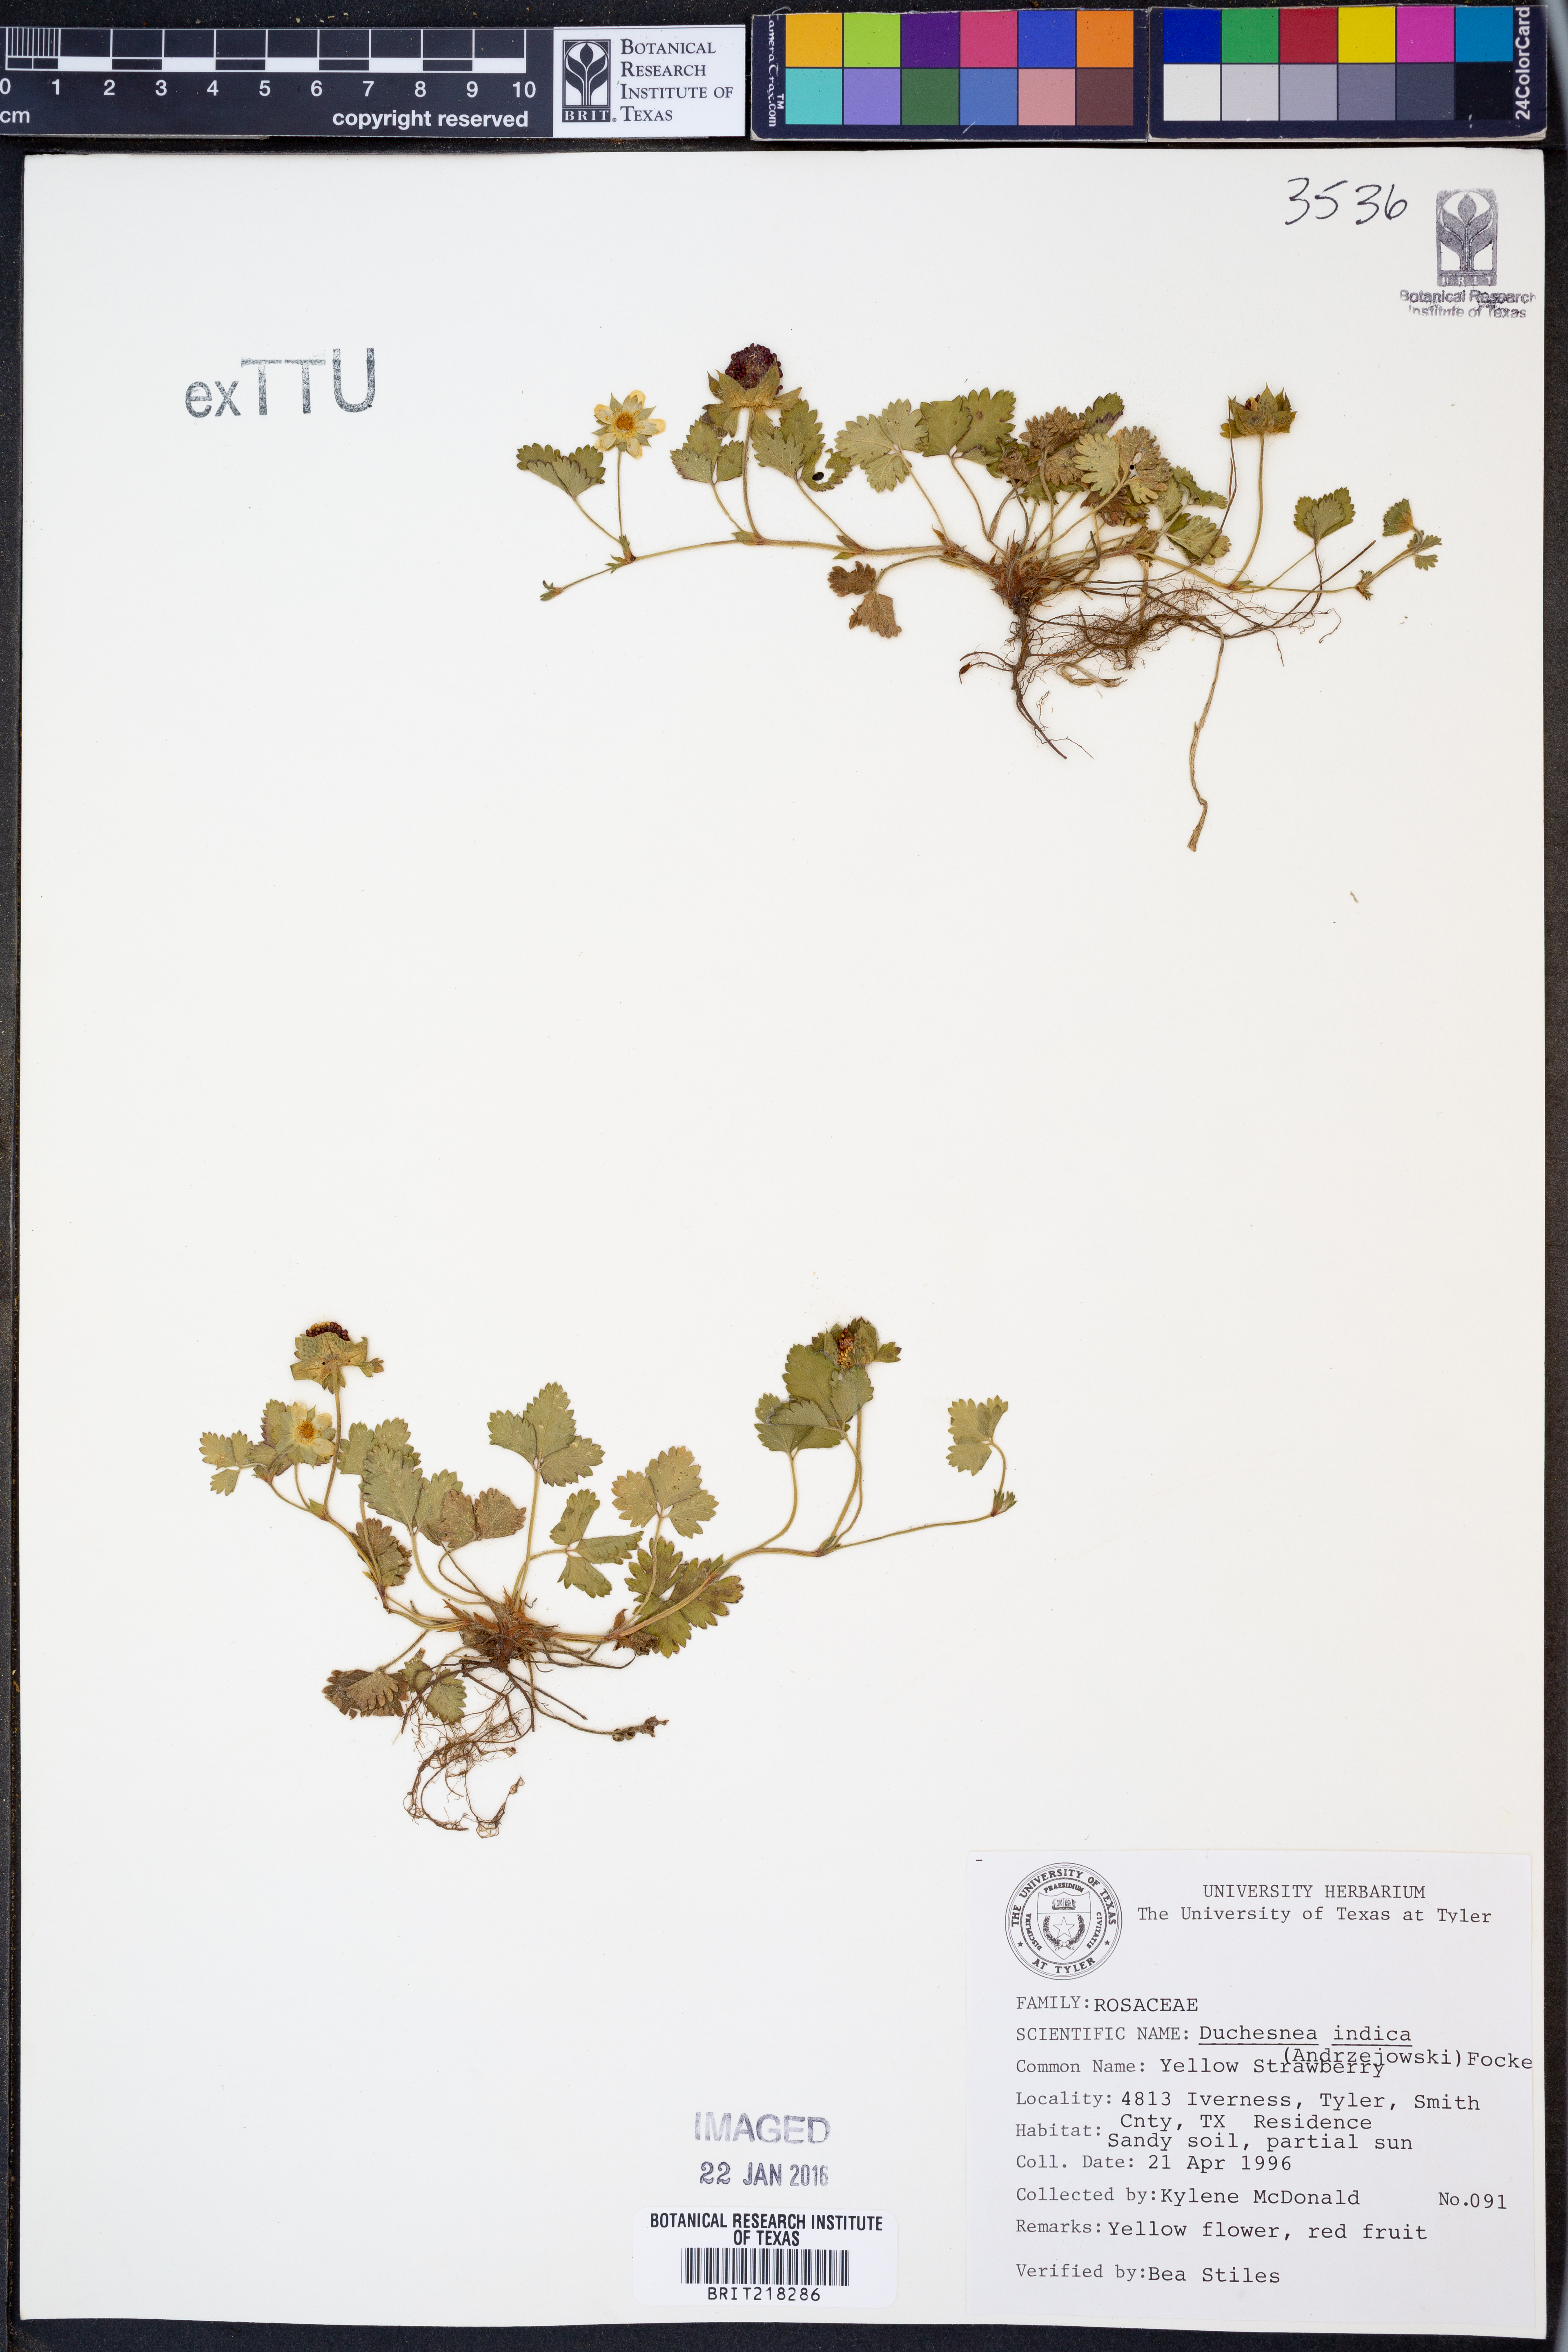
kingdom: Plantae
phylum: Tracheophyta
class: Magnoliopsida
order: Rosales
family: Rosaceae
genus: Potentilla
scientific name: Potentilla indica
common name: Yellow-flowered strawberry
